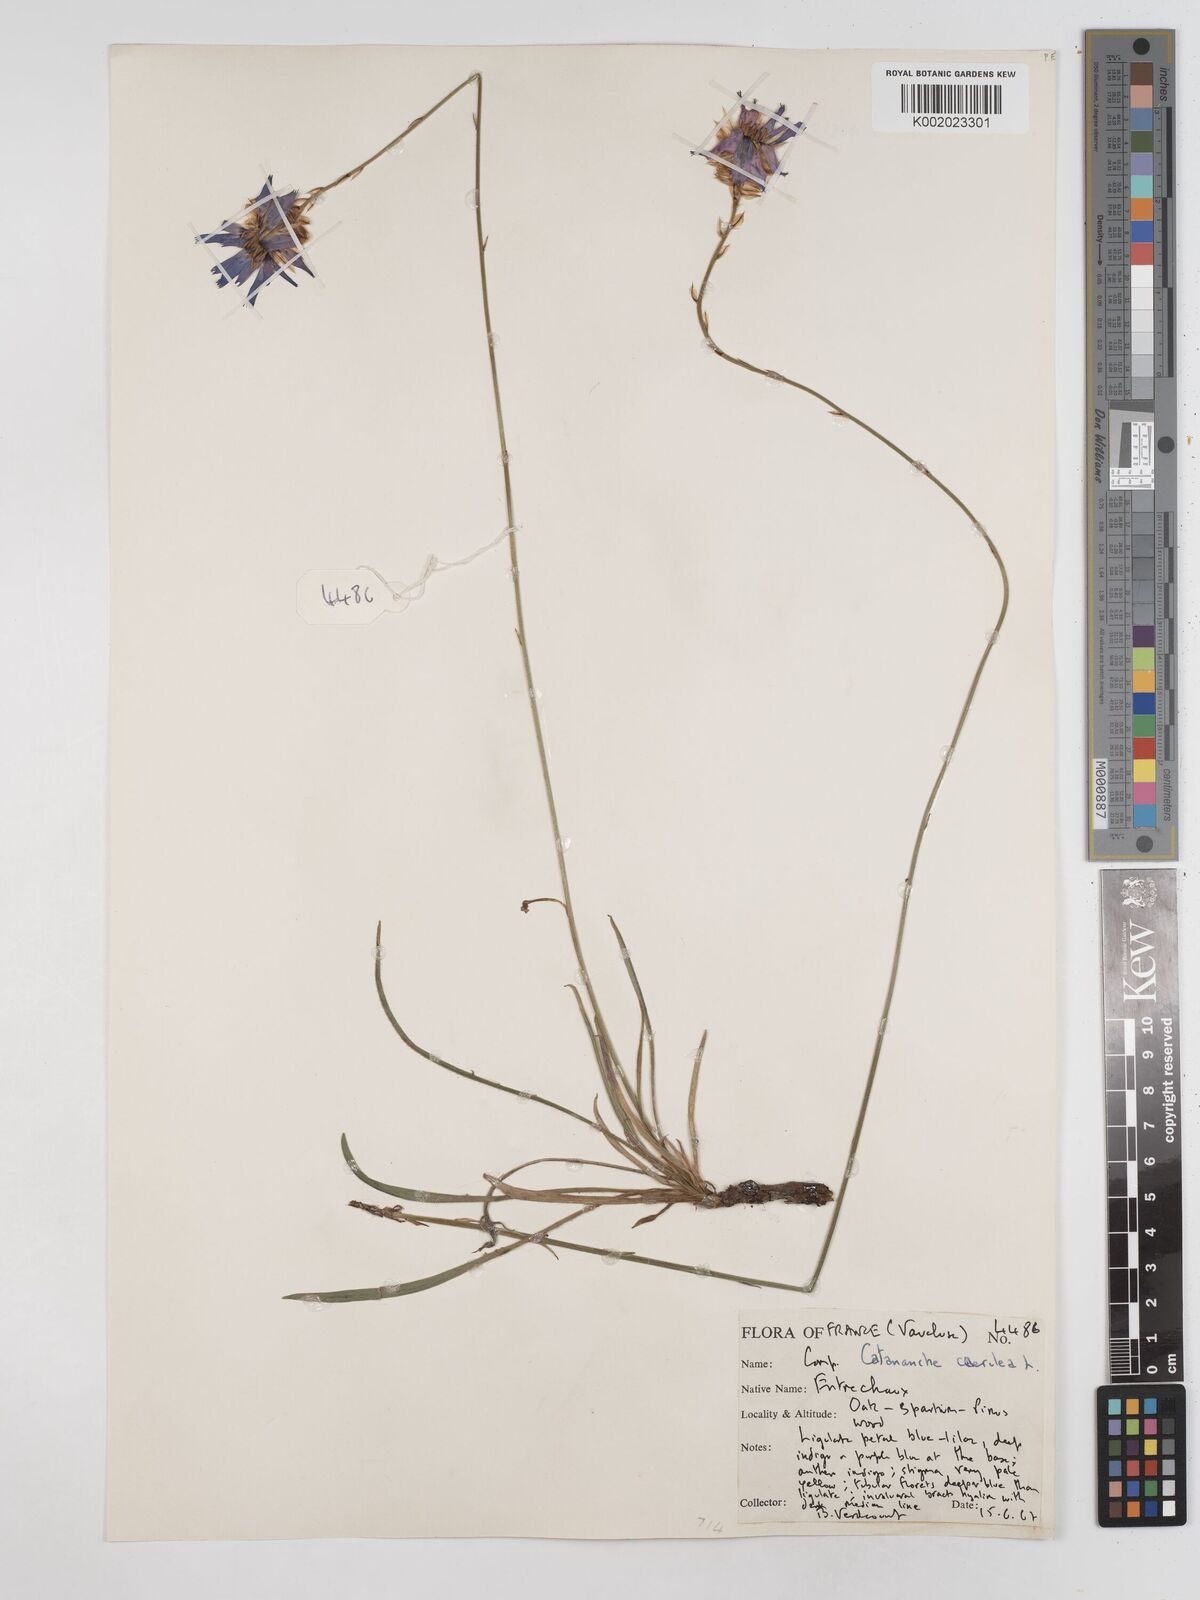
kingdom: Plantae
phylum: Tracheophyta
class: Magnoliopsida
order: Asterales
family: Asteraceae
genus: Catananche
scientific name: Catananche caerulea
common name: Blue cupidone
